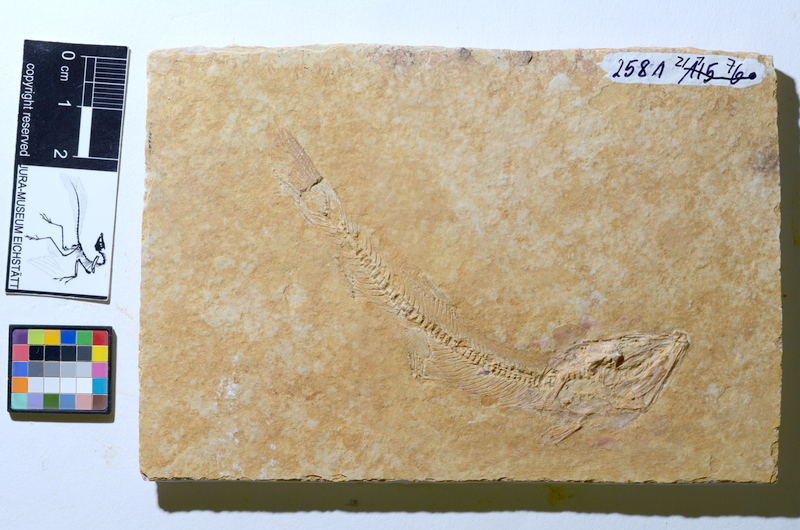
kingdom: Animalia
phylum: Chordata
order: Elopiformes
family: Anaethalionidae
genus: Anaethalion
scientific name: Anaethalion
